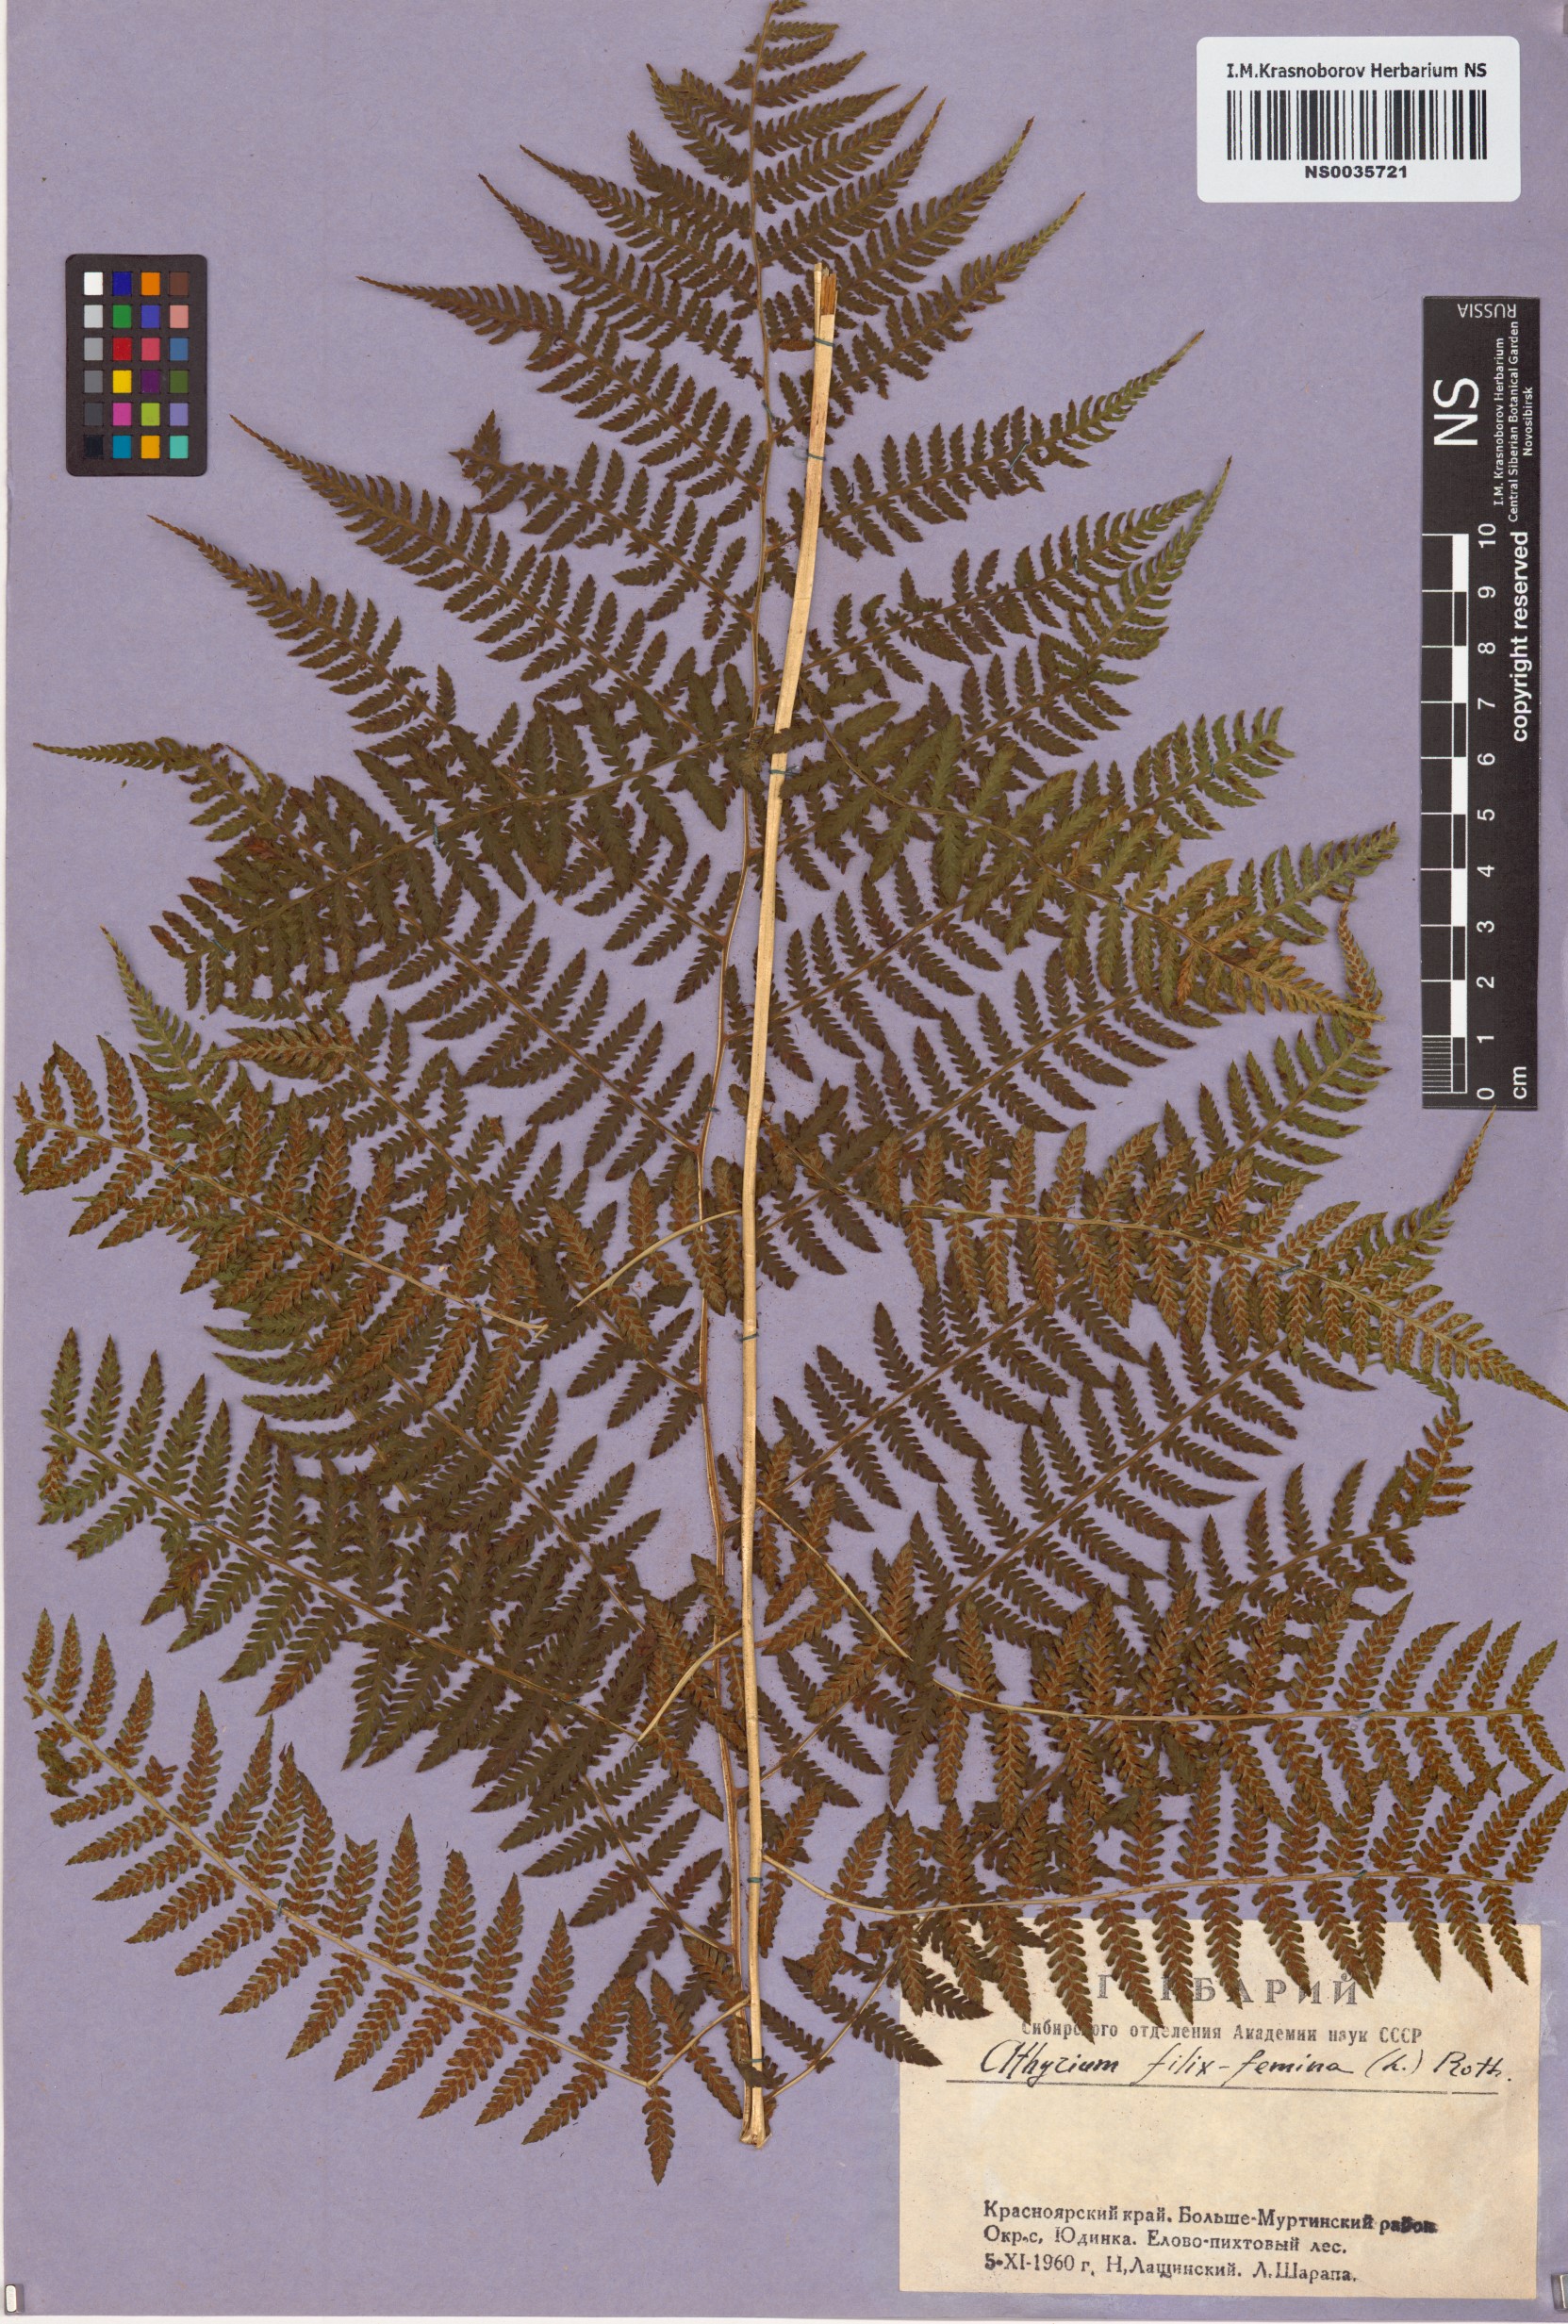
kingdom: Plantae
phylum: Tracheophyta
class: Polypodiopsida
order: Polypodiales
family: Athyriaceae
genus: Athyrium
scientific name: Athyrium filix-femina
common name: Lady fern
